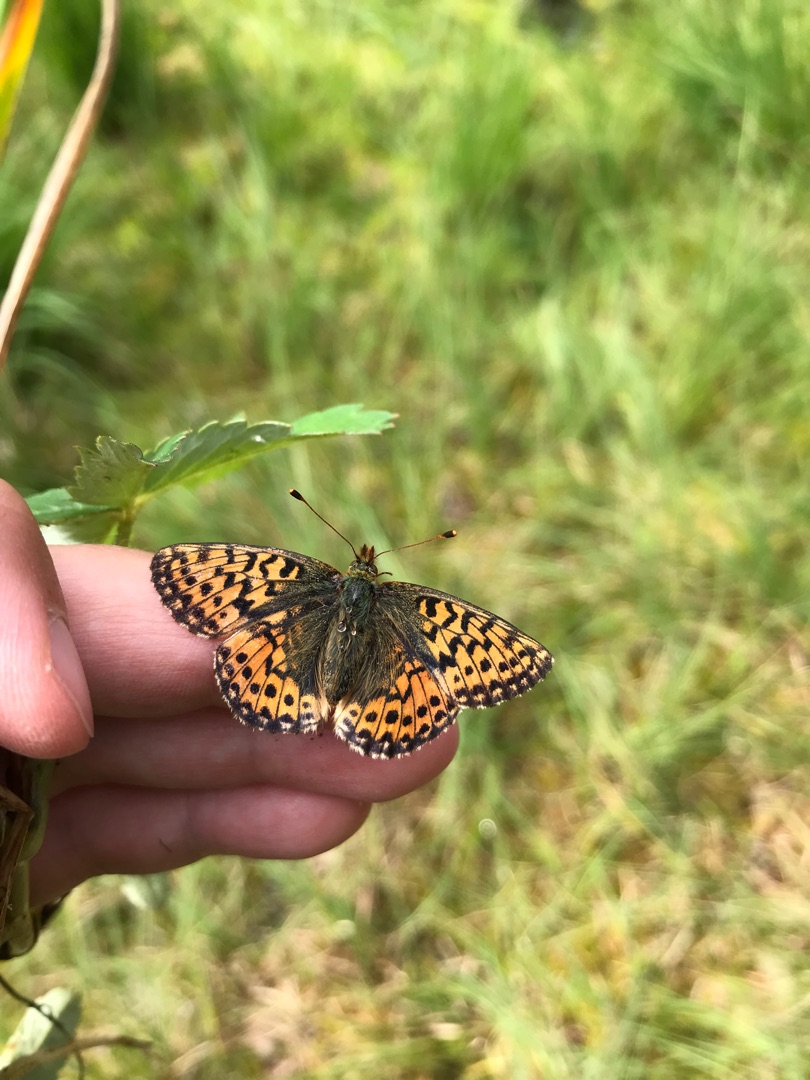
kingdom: Animalia
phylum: Arthropoda
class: Insecta
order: Lepidoptera
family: Nymphalidae
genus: Boloria
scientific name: Boloria aquilonaris
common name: Moseperlemorsommerfugl
